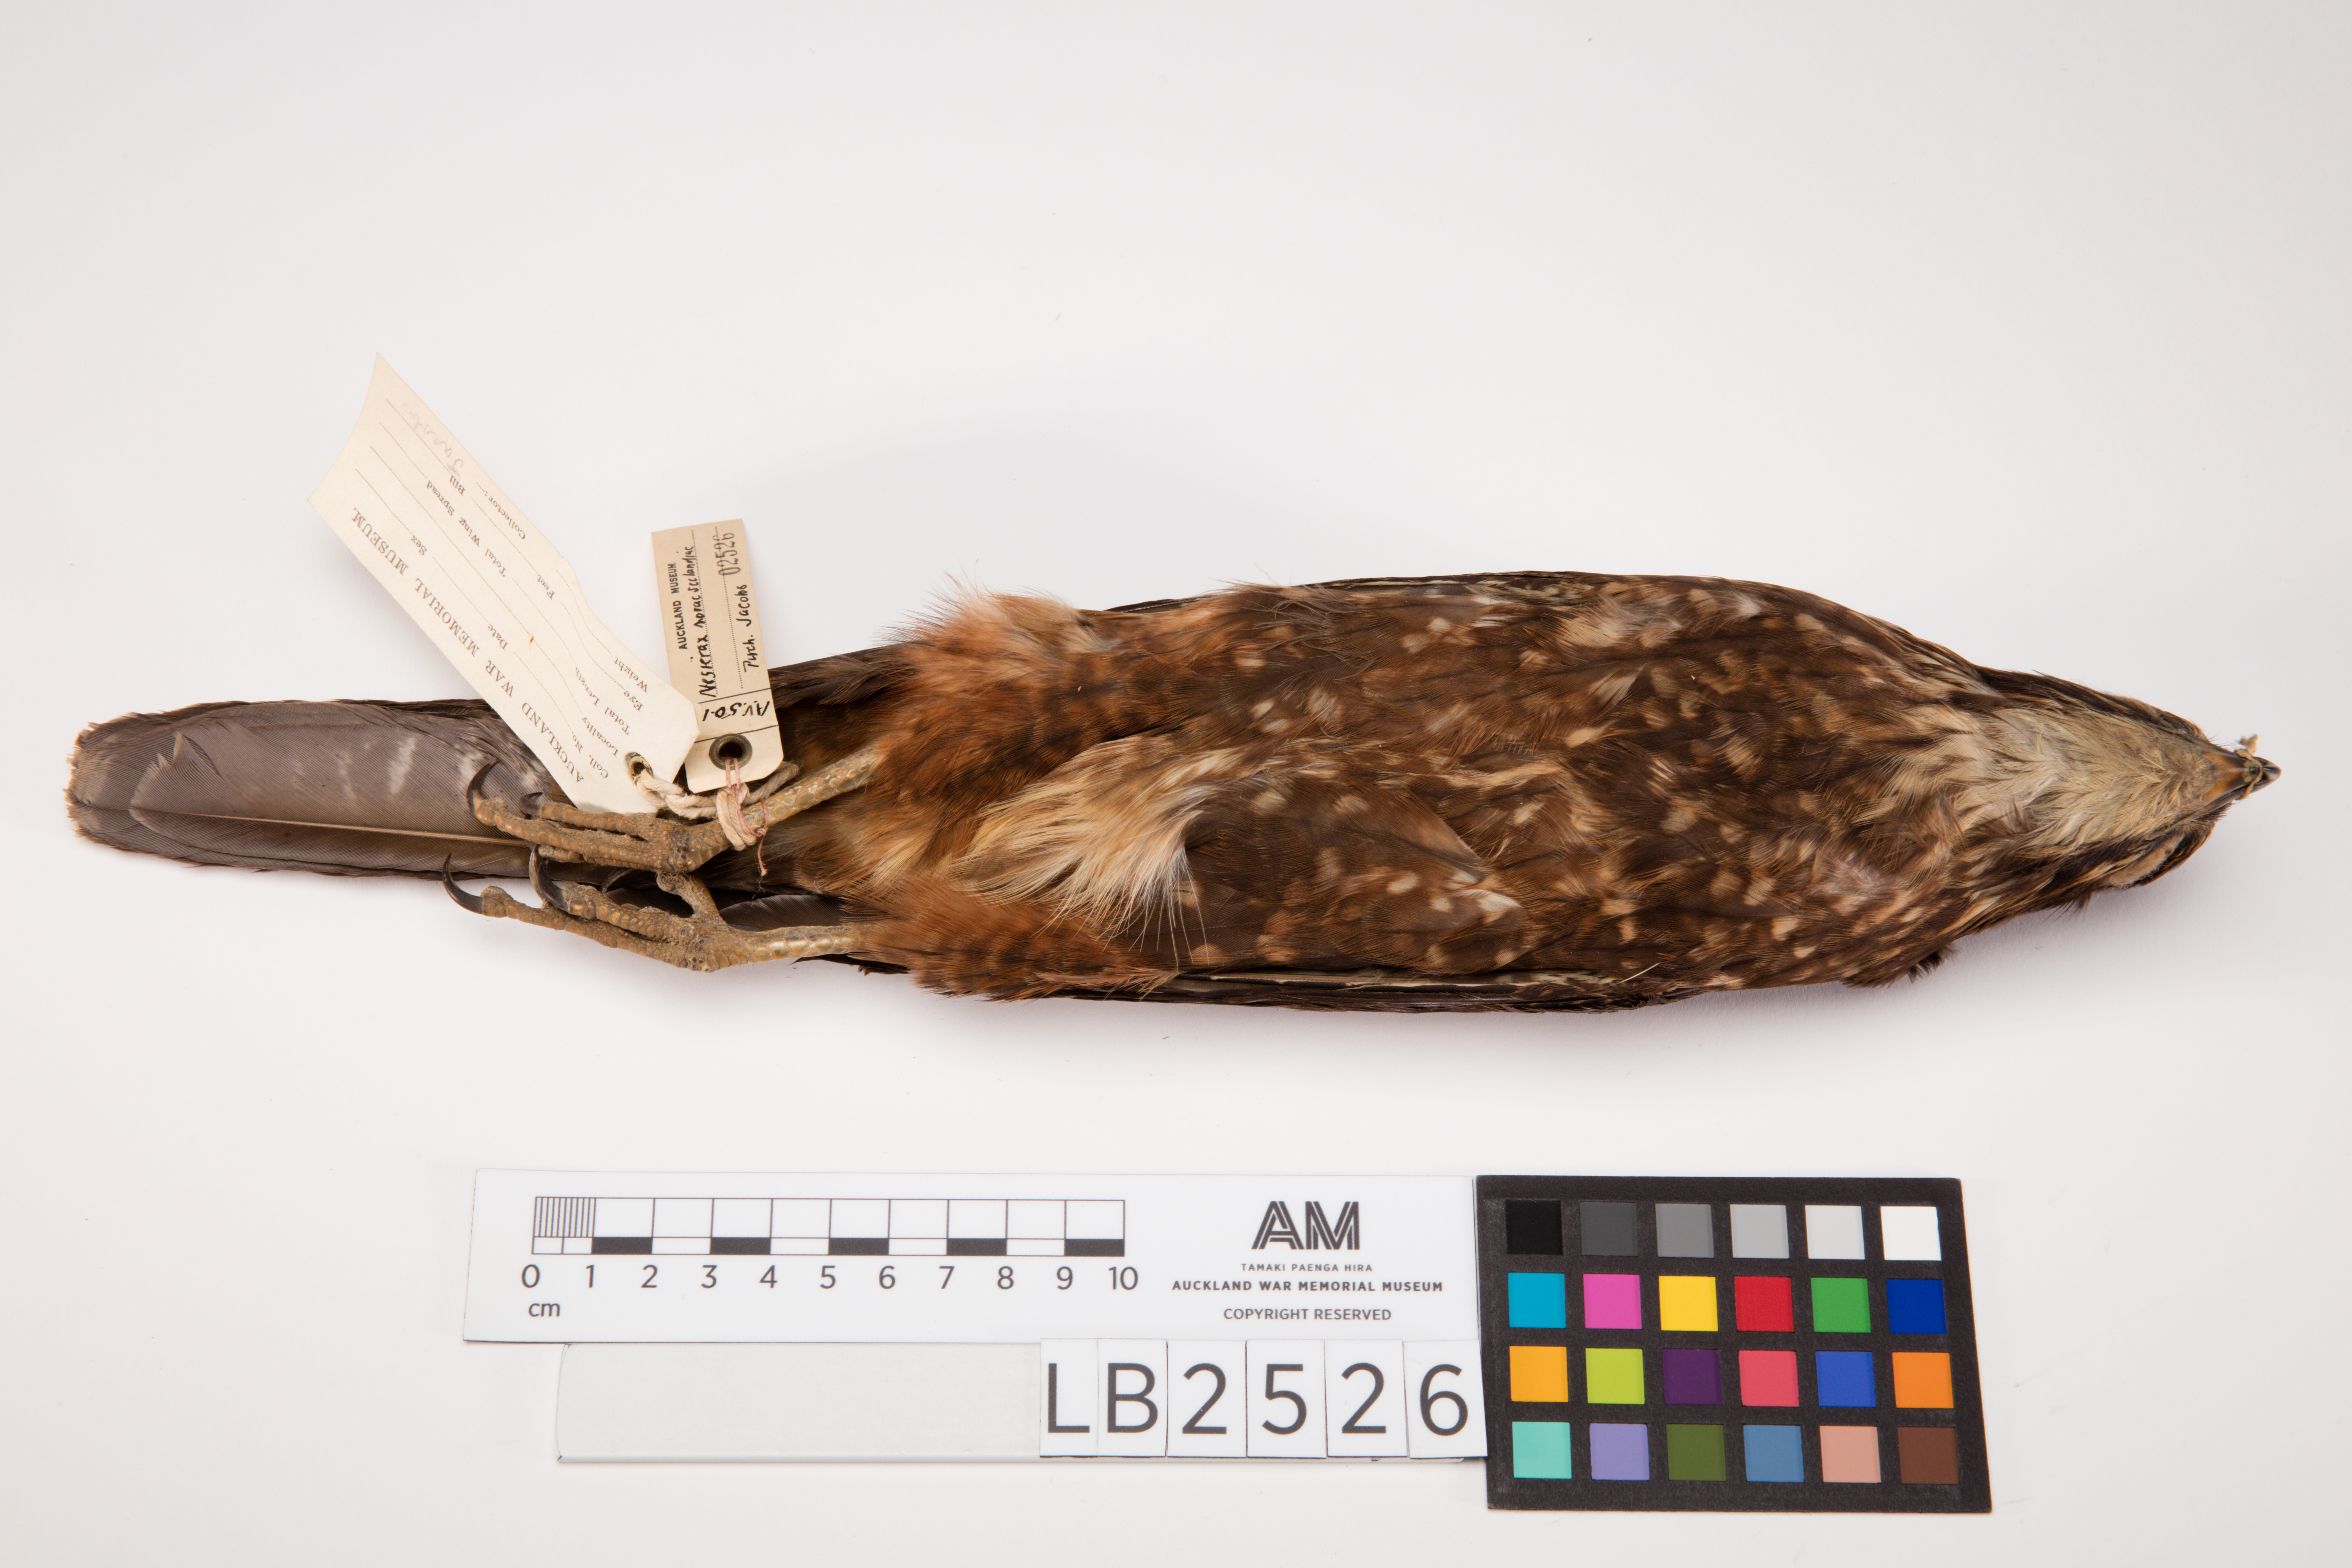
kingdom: Animalia
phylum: Chordata
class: Aves
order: Falconiformes
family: Falconidae
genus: Falco
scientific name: Falco novaeseelandiae
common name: New zealand falcon
